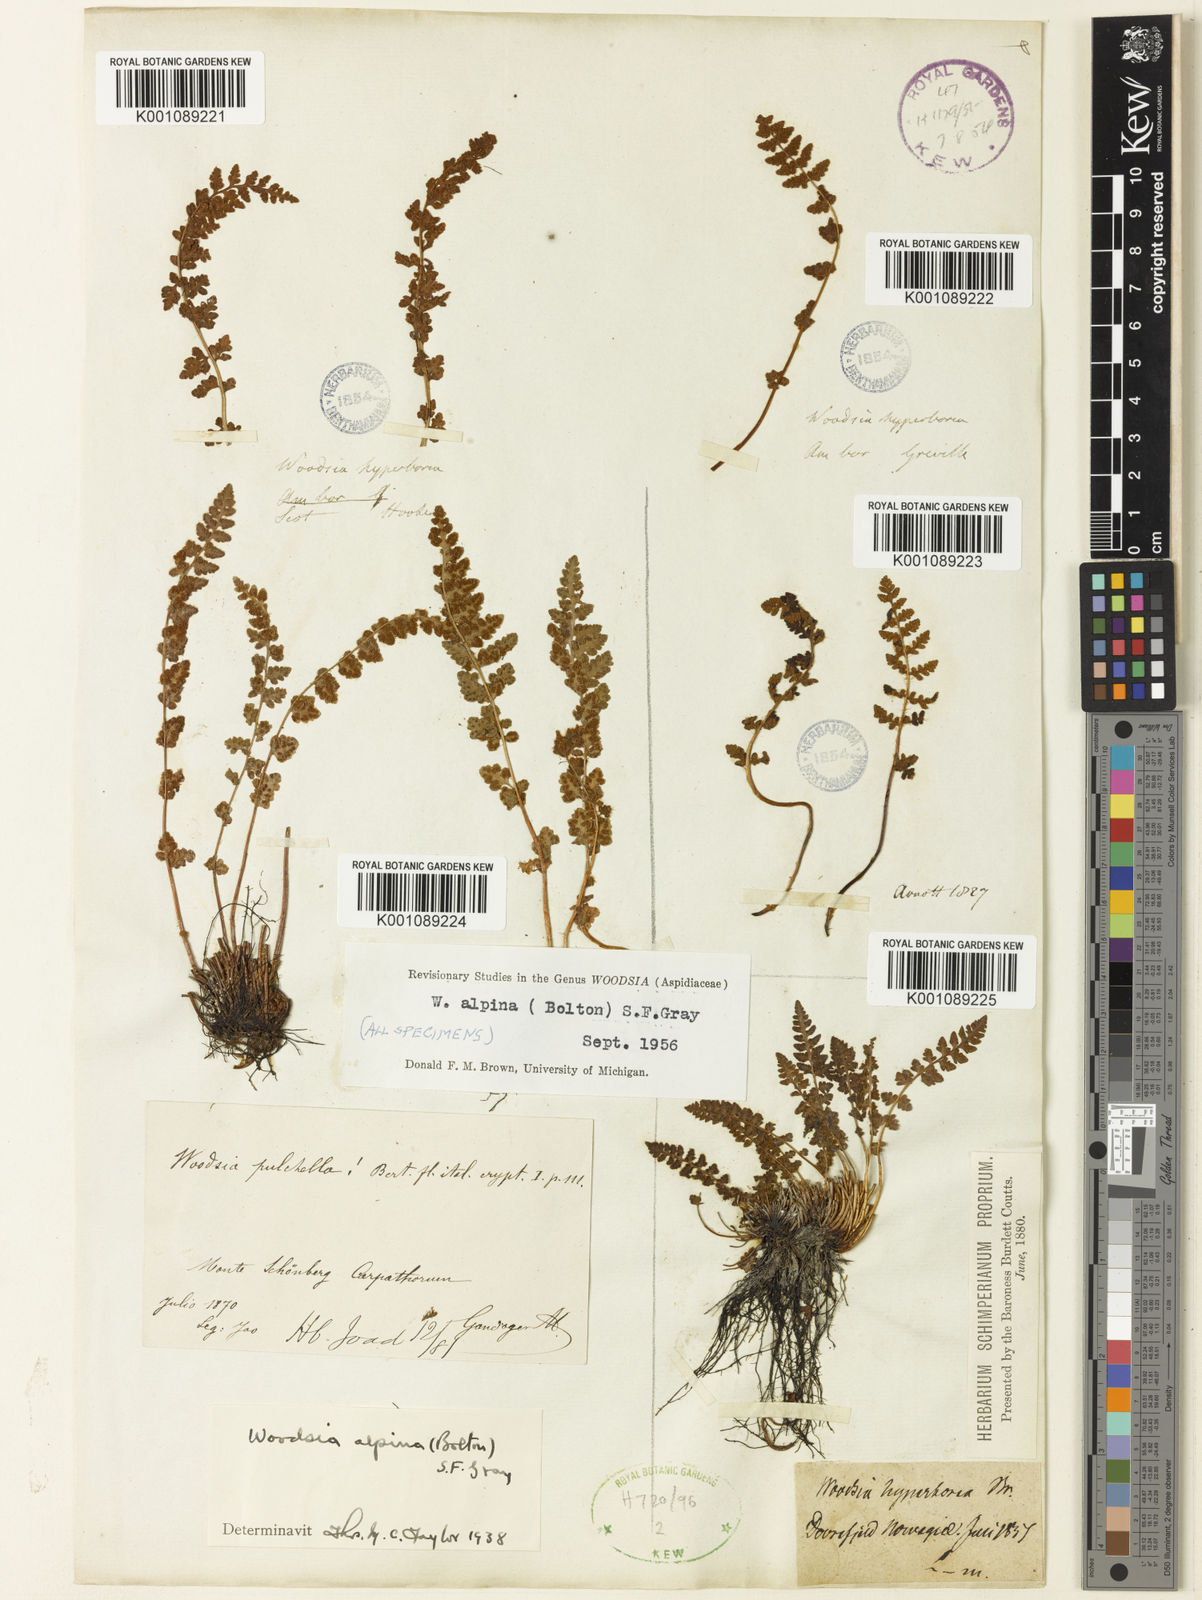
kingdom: Plantae
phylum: Tracheophyta
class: Polypodiopsida
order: Polypodiales
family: Woodsiaceae
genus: Woodsia
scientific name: Woodsia alpina
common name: Alpine woodsia
